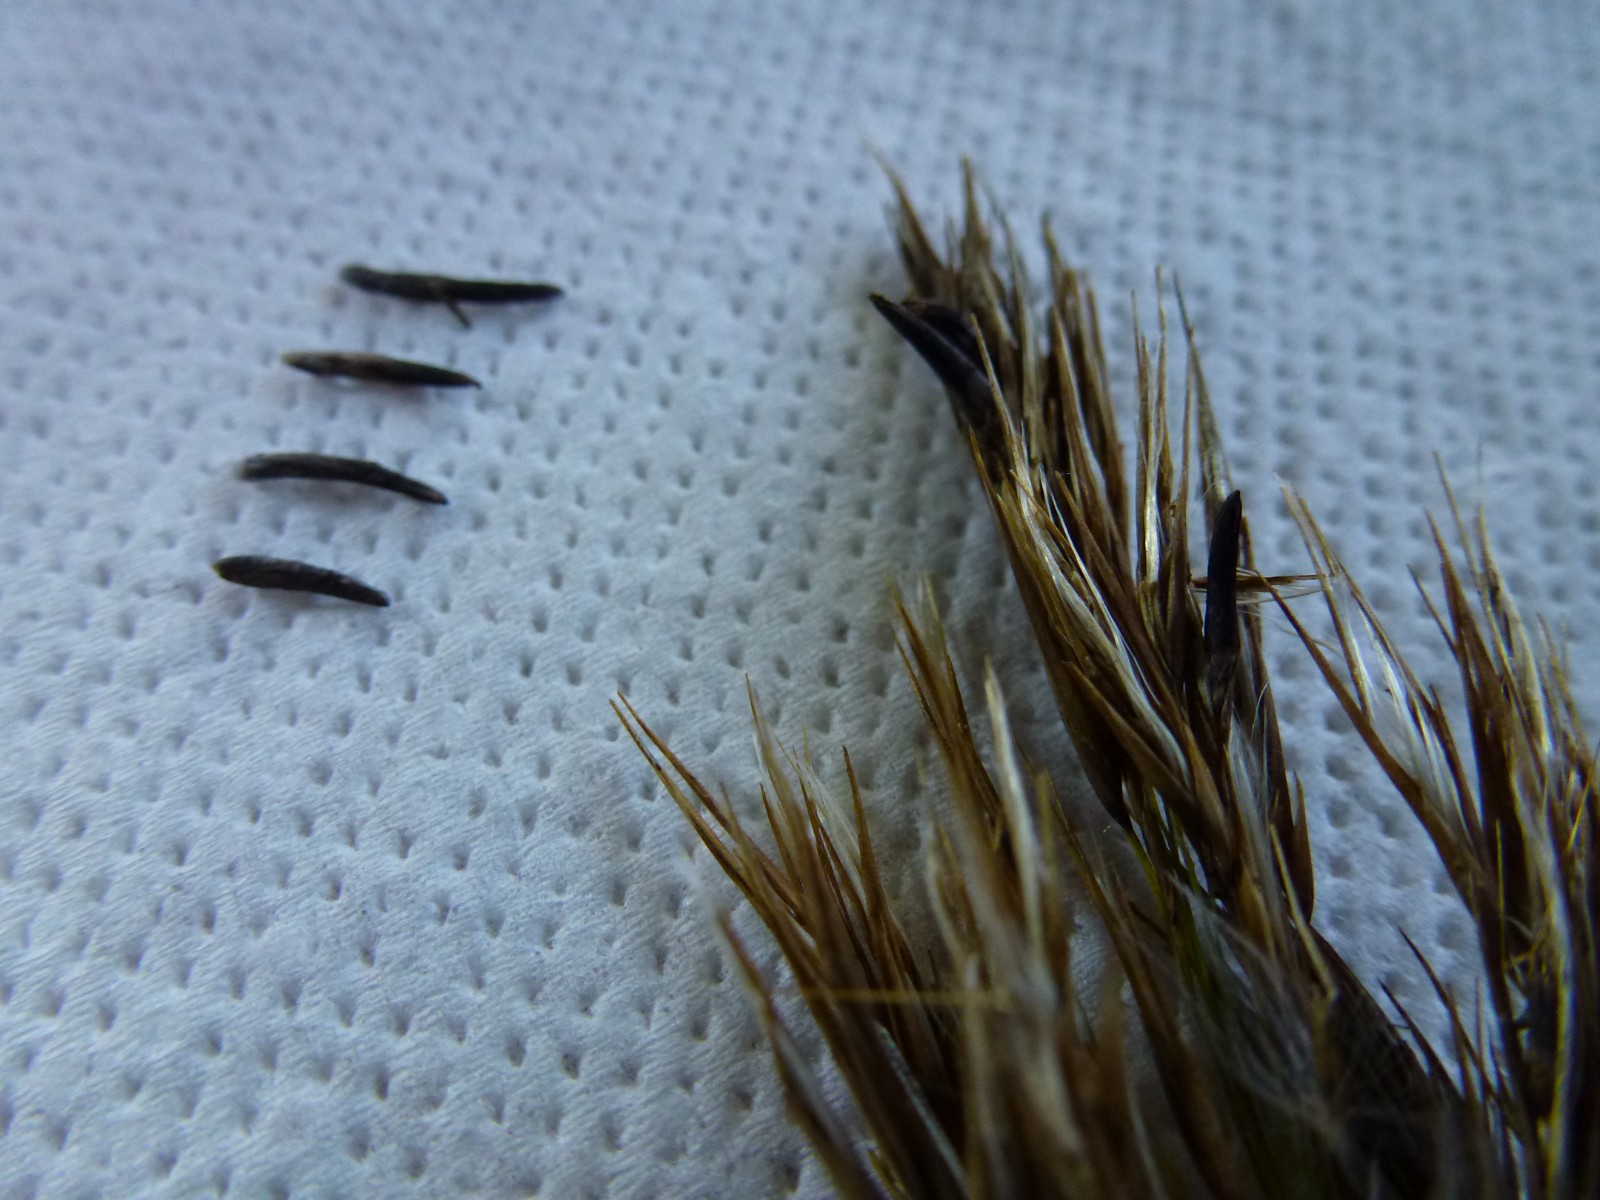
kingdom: Fungi
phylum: Ascomycota
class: Sordariomycetes
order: Hypocreales
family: Clavicipitaceae
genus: Claviceps
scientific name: Claviceps arundinis
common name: tagrør-meldrøjer
